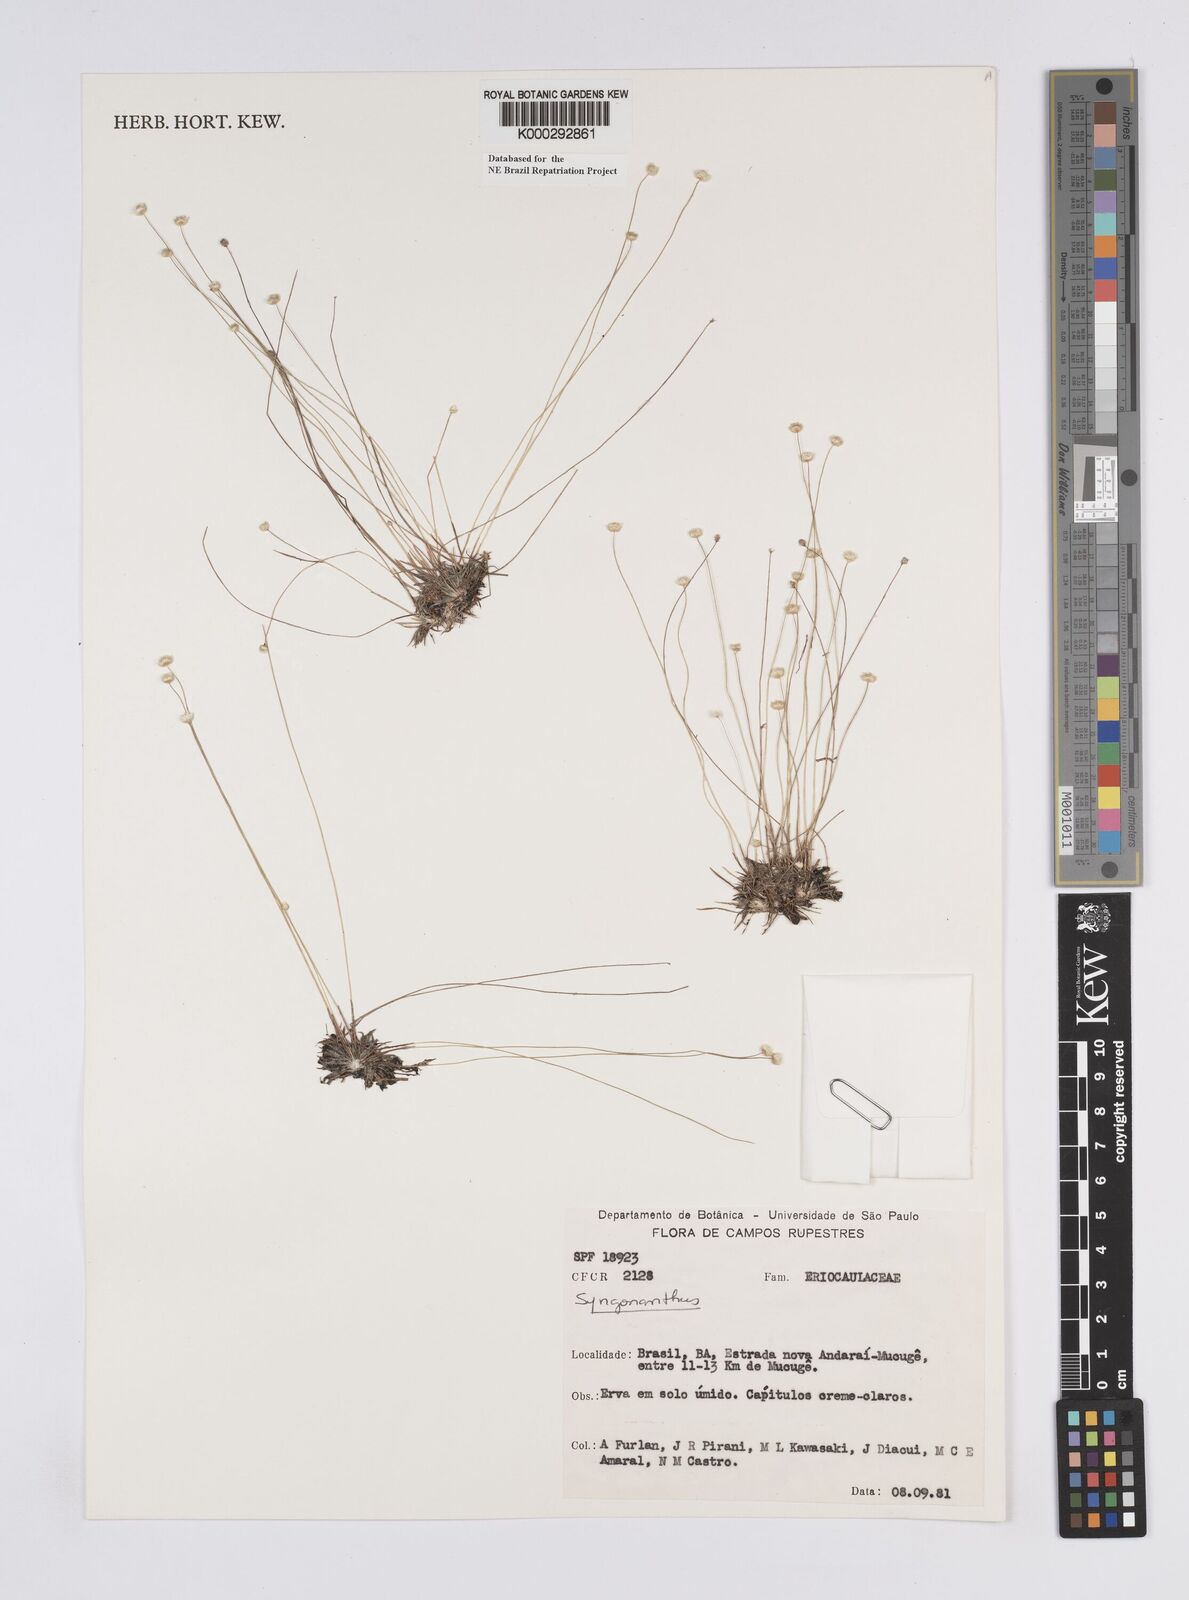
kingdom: Plantae
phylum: Tracheophyta
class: Liliopsida
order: Poales
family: Eriocaulaceae
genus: Syngonanthus
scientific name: Syngonanthus
